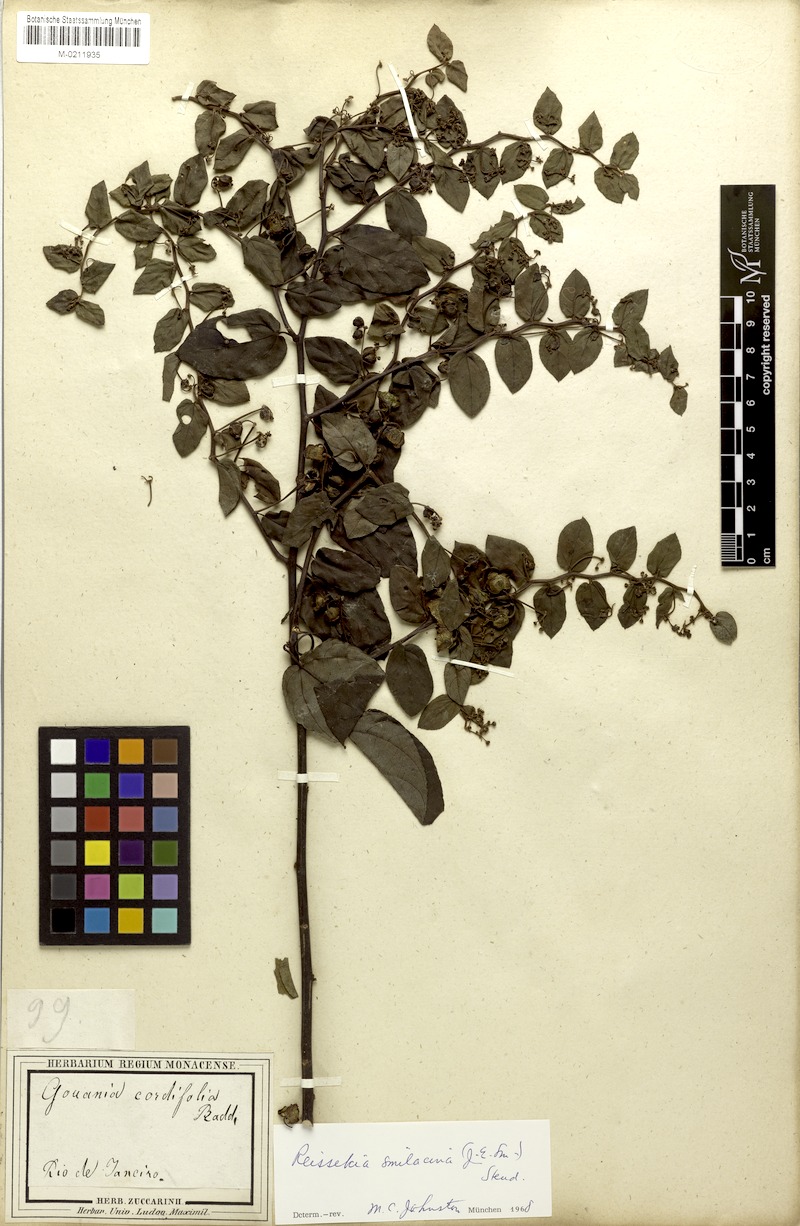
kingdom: Plantae
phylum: Tracheophyta
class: Magnoliopsida
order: Rosales
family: Rhamnaceae
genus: Reissekia
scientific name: Reissekia smilacina
